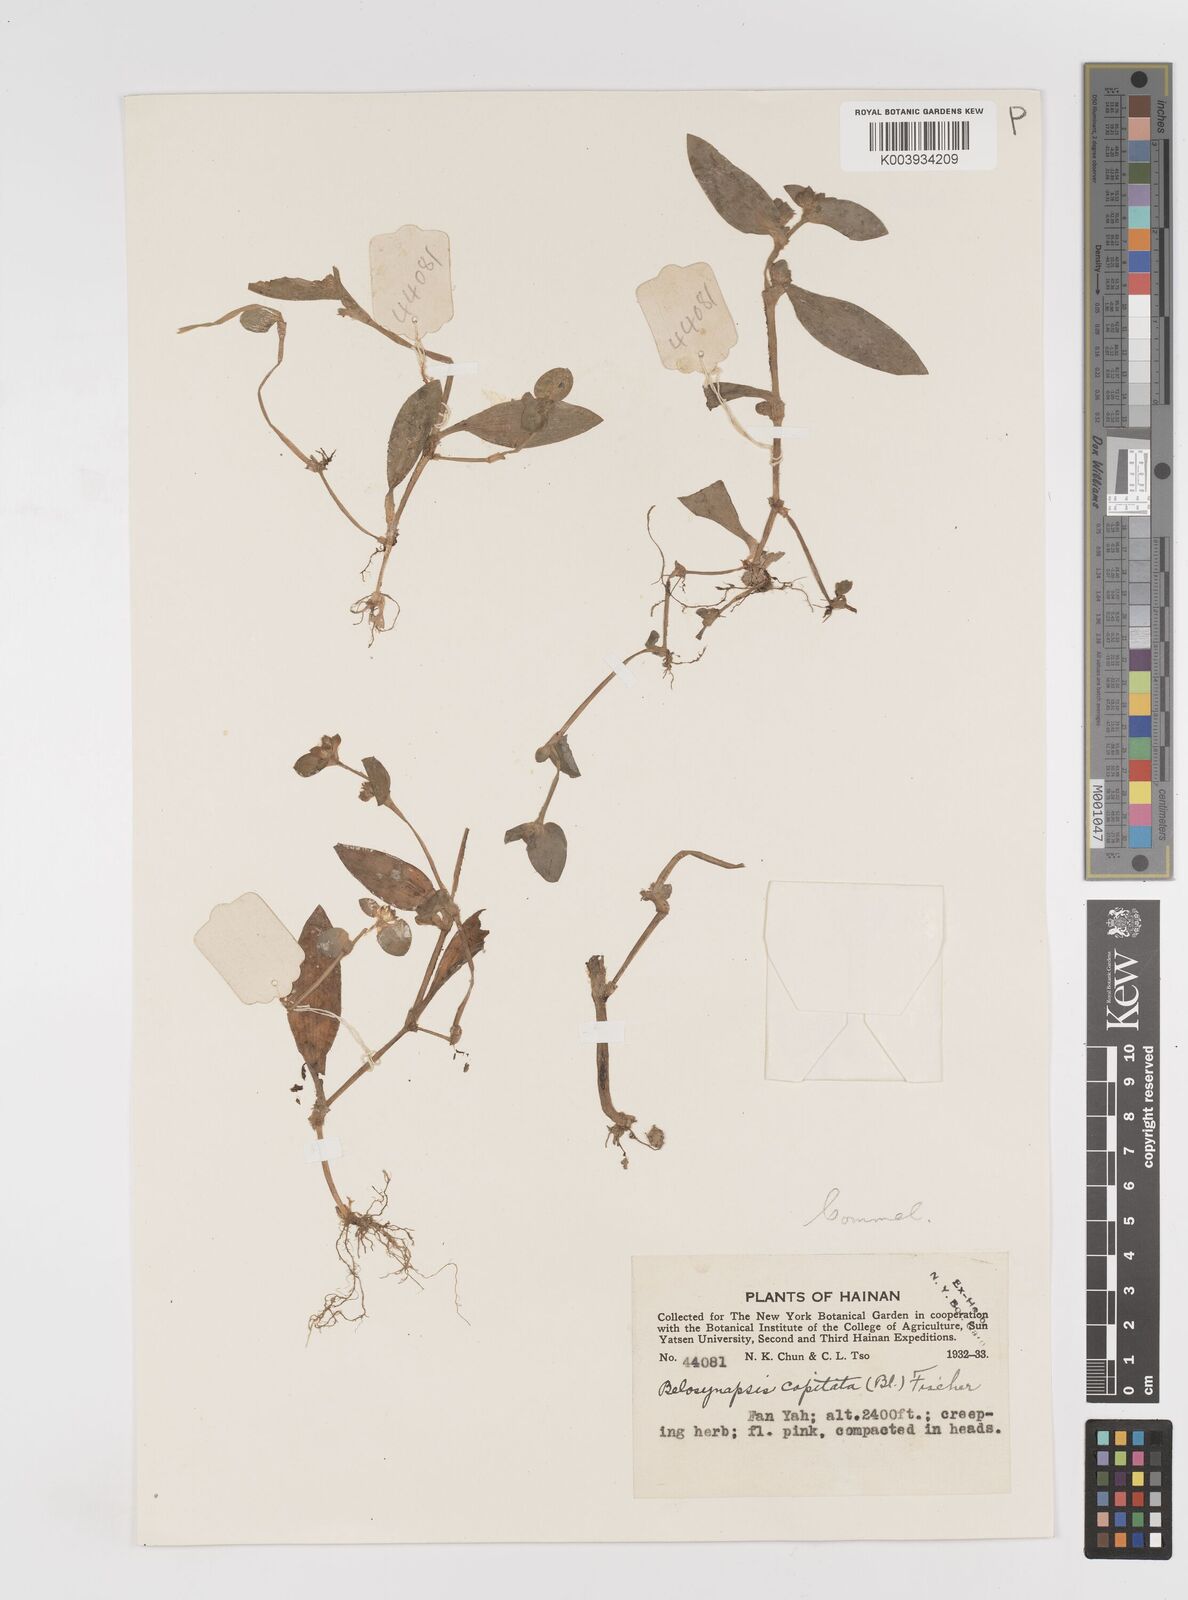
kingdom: Plantae
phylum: Tracheophyta
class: Liliopsida
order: Commelinales
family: Commelinaceae
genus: Cyanotis
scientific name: Cyanotis ciliata
